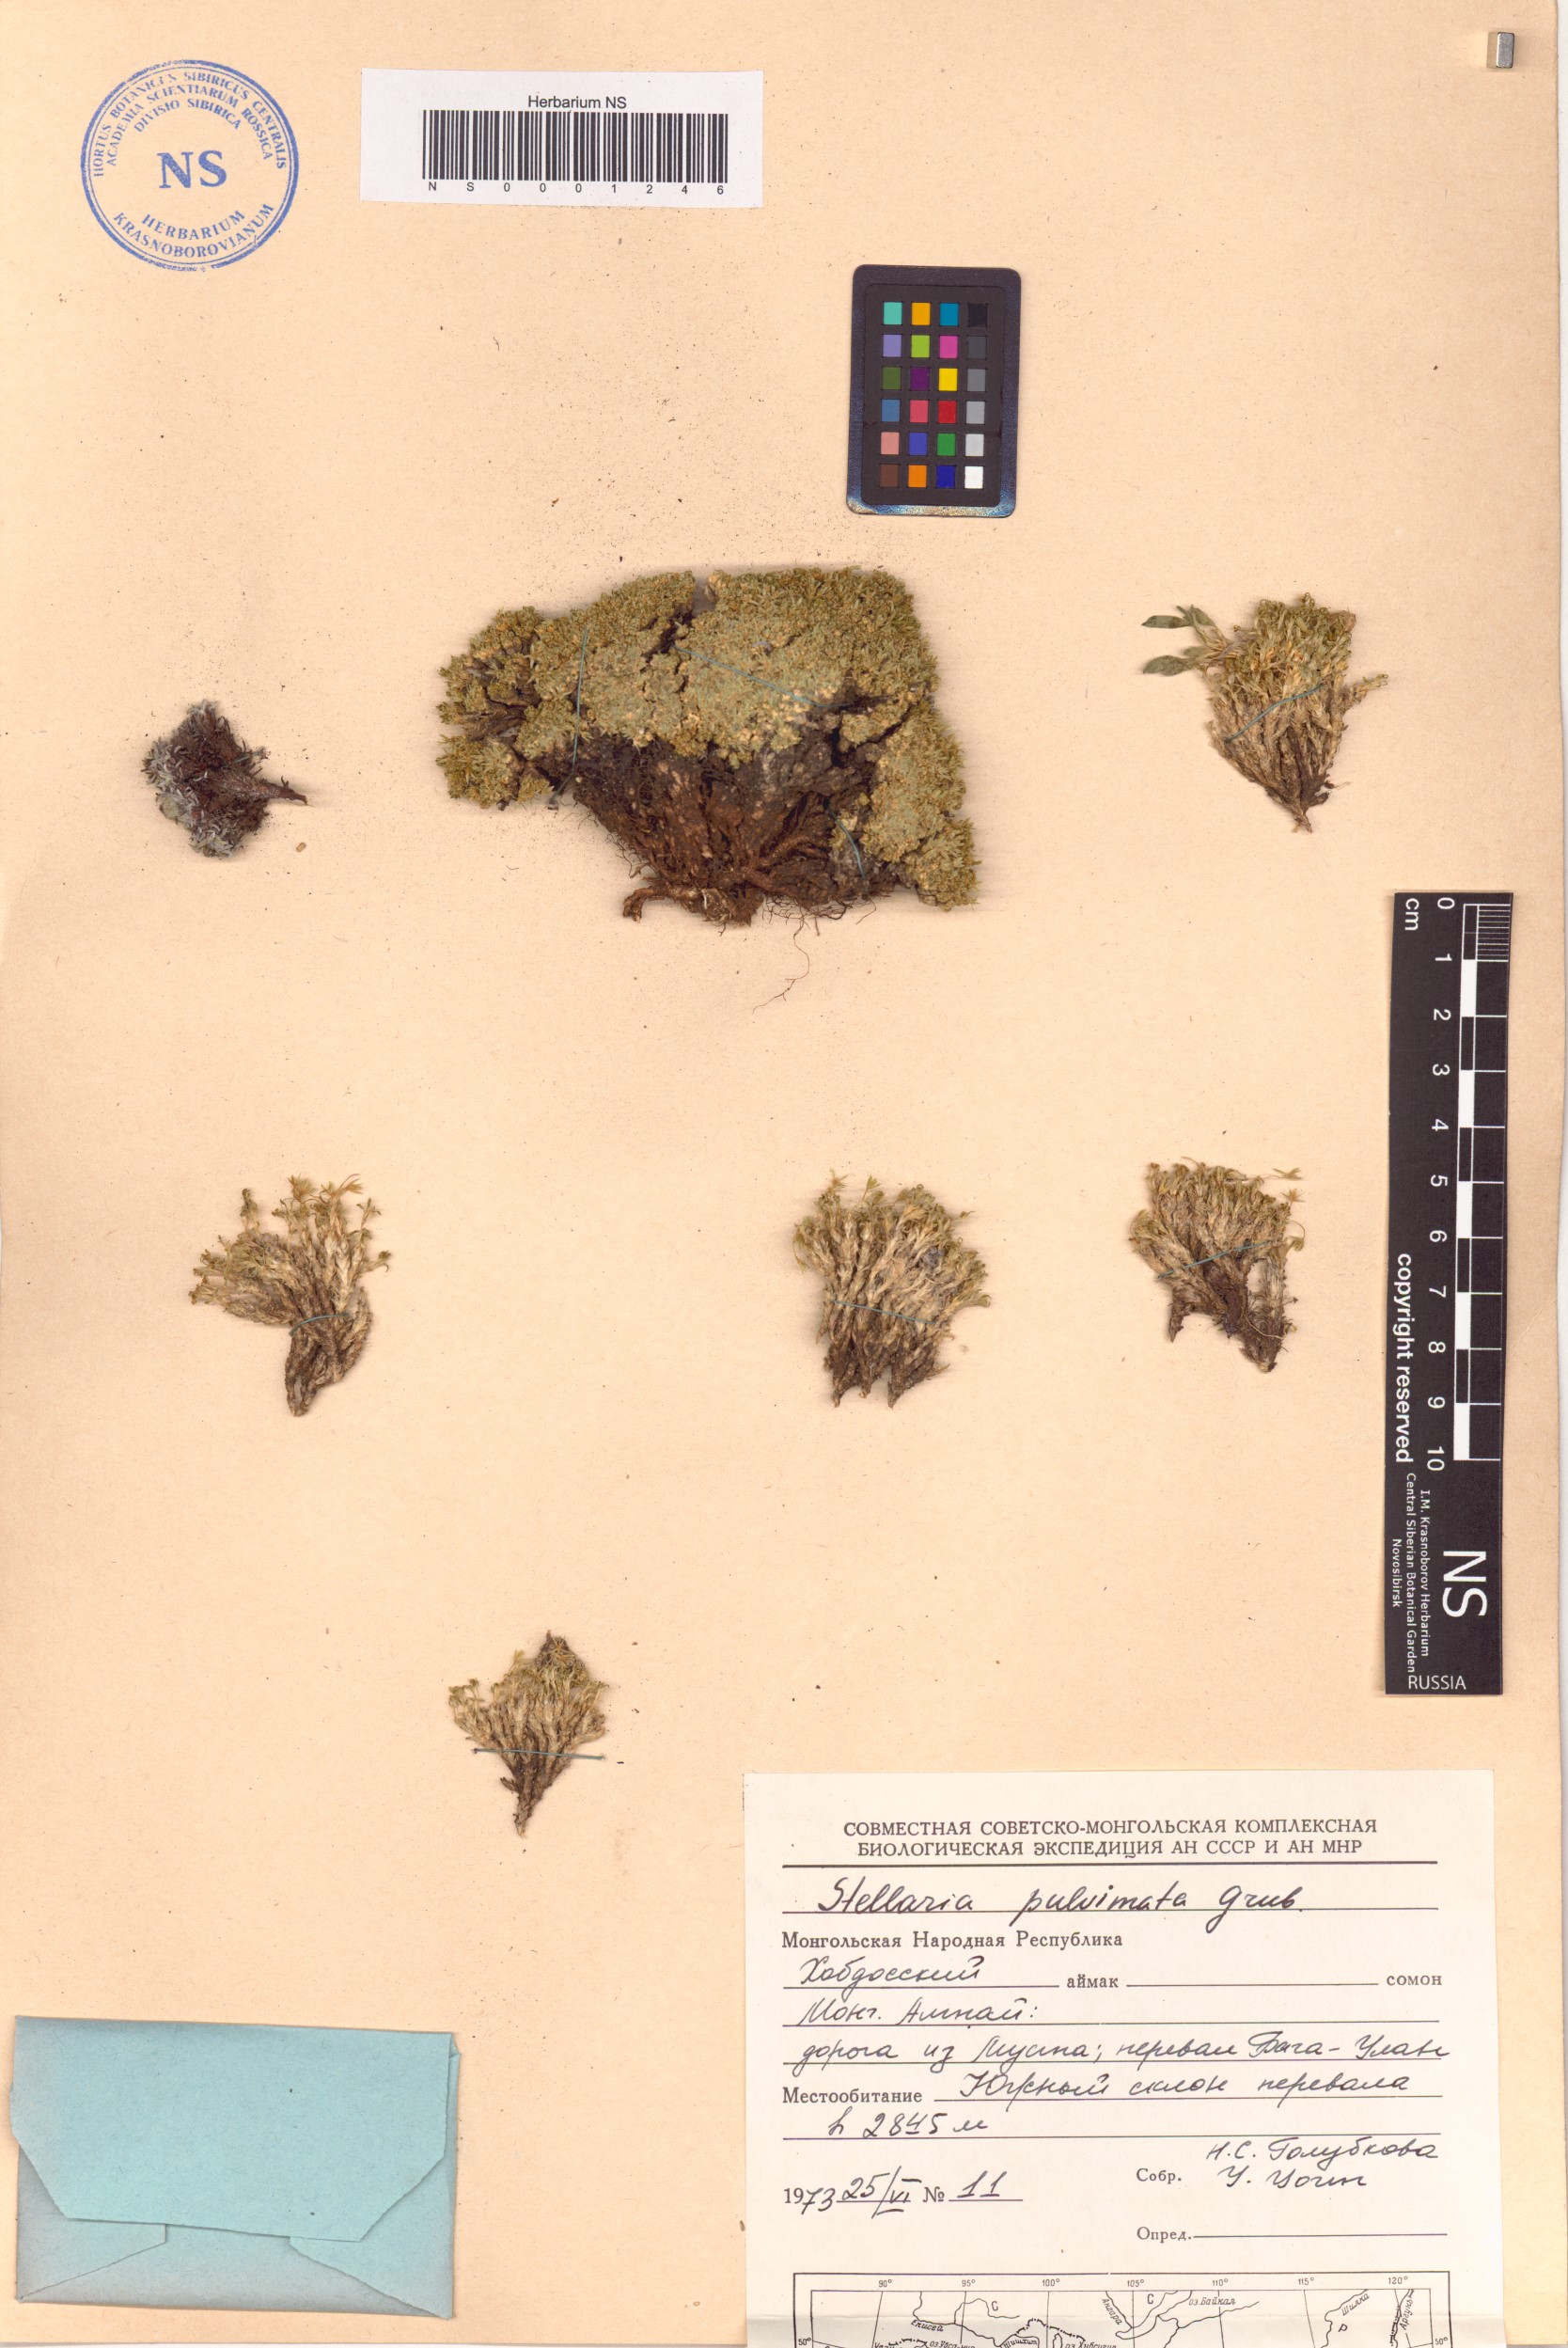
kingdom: Plantae
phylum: Tracheophyta
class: Magnoliopsida
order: Caryophyllales
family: Caryophyllaceae
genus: Stellaria
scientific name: Stellaria pulvinata
